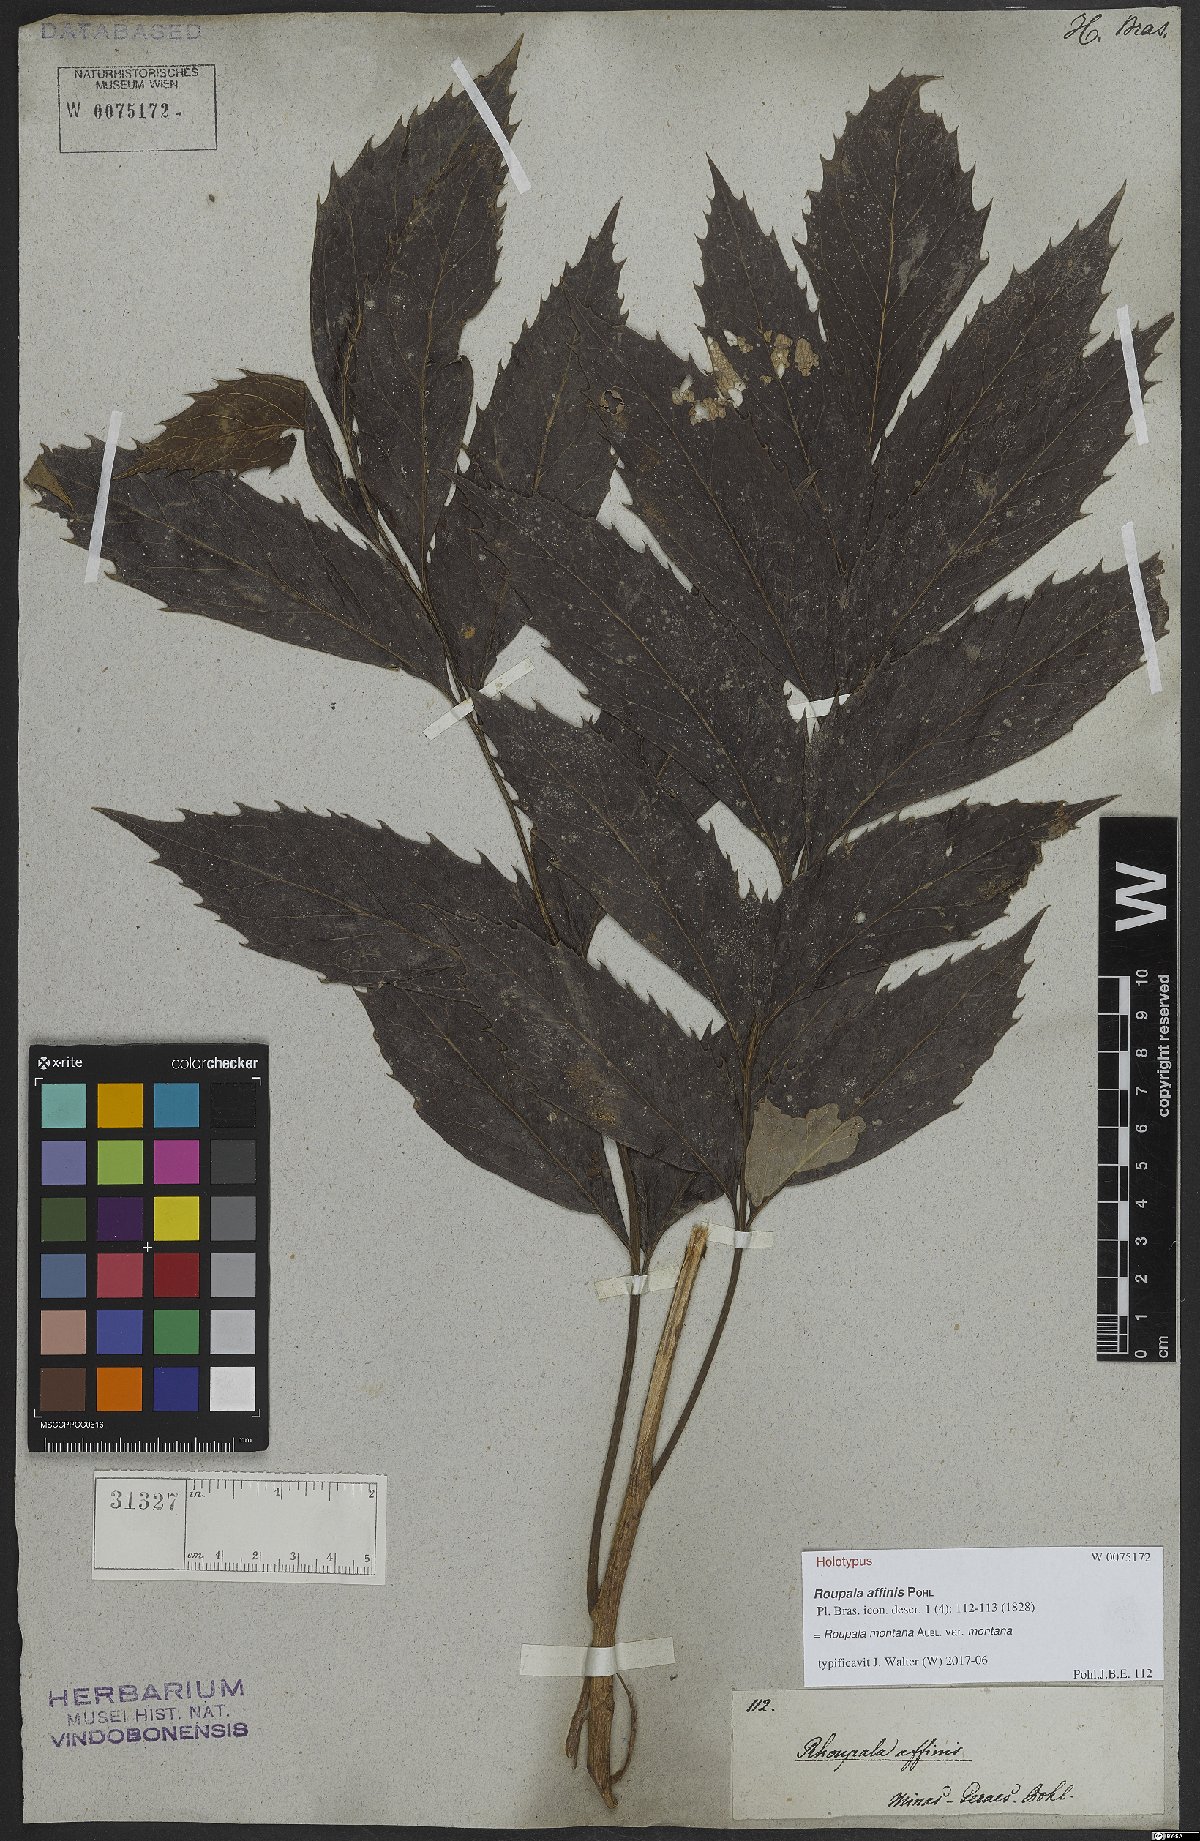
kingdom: Plantae
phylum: Tracheophyta
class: Magnoliopsida
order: Proteales
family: Proteaceae
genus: Roupala
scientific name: Roupala montana
